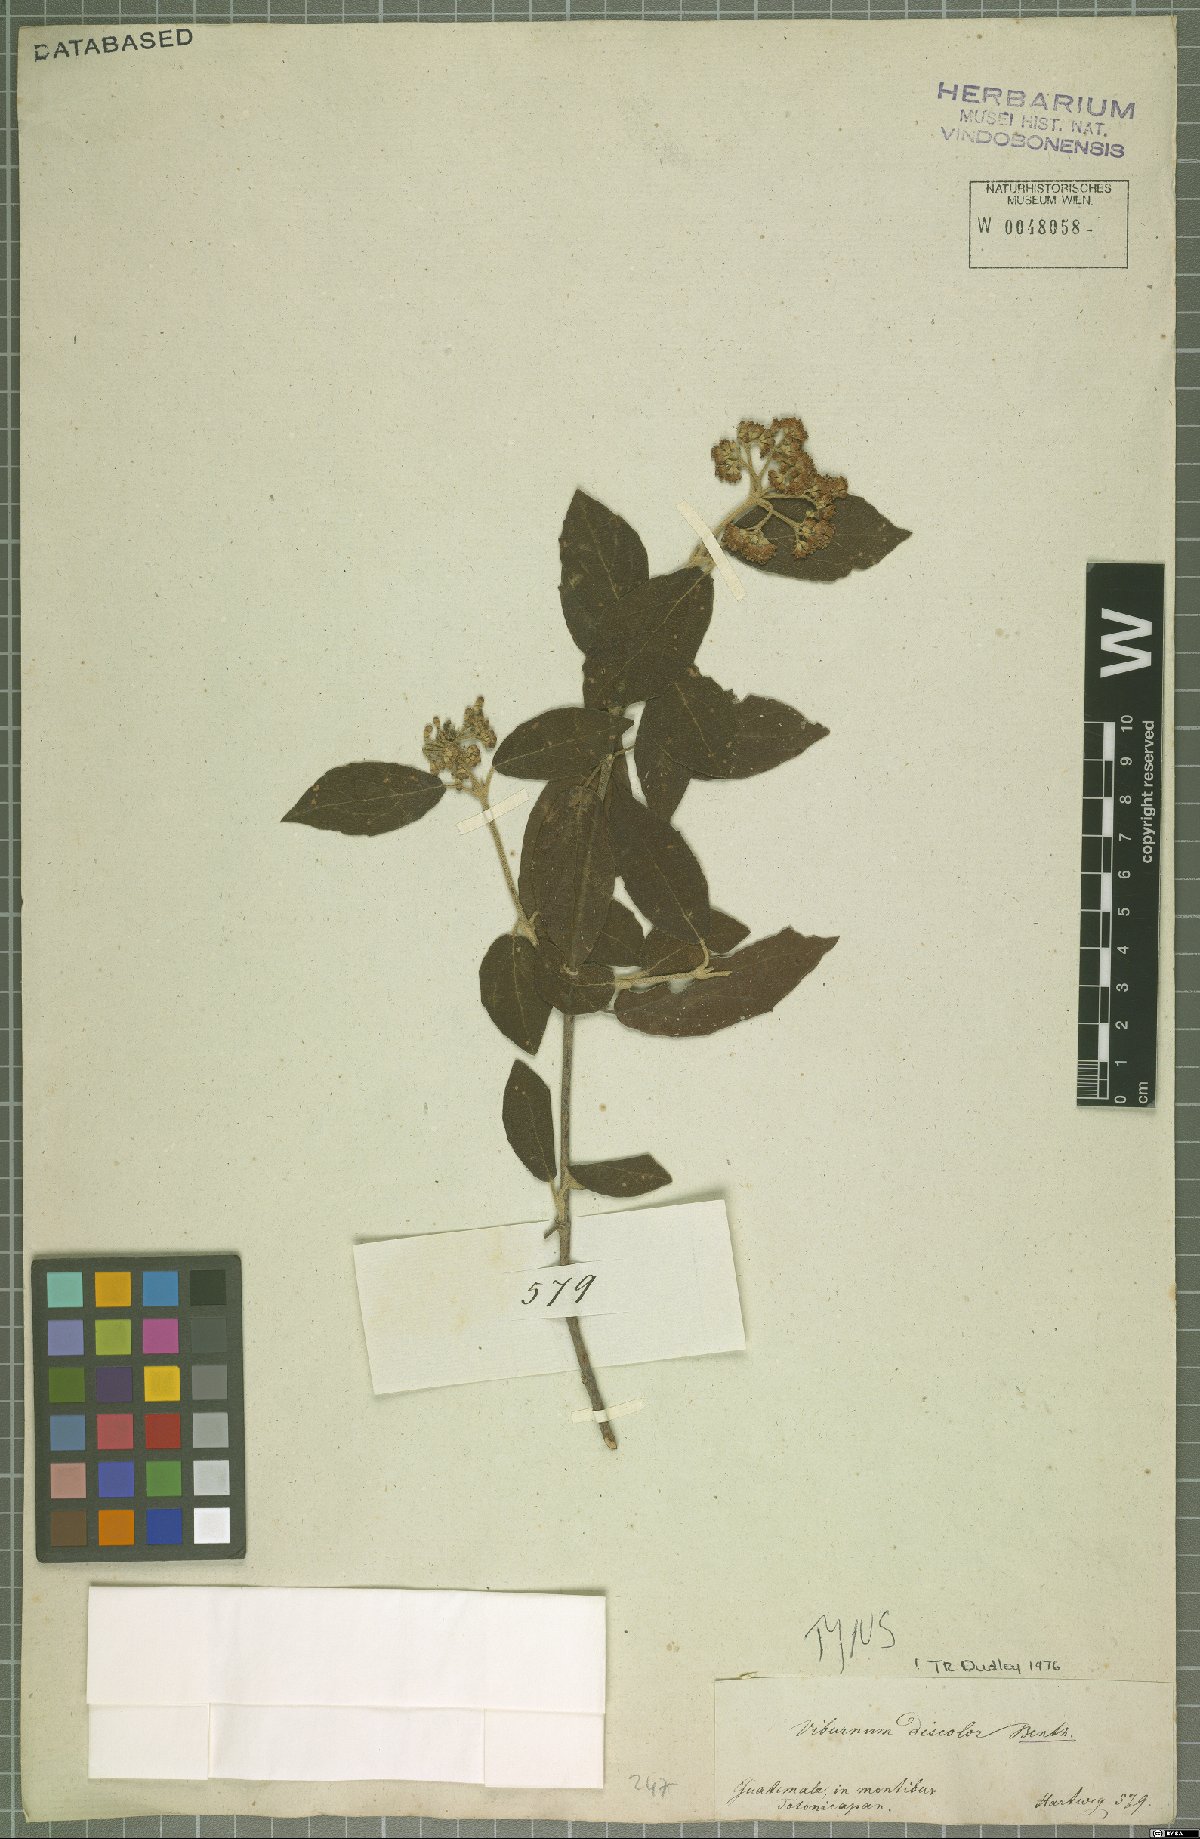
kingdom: Plantae
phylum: Tracheophyta
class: Magnoliopsida
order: Dipsacales
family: Viburnaceae
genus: Viburnum
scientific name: Viburnum discolor
